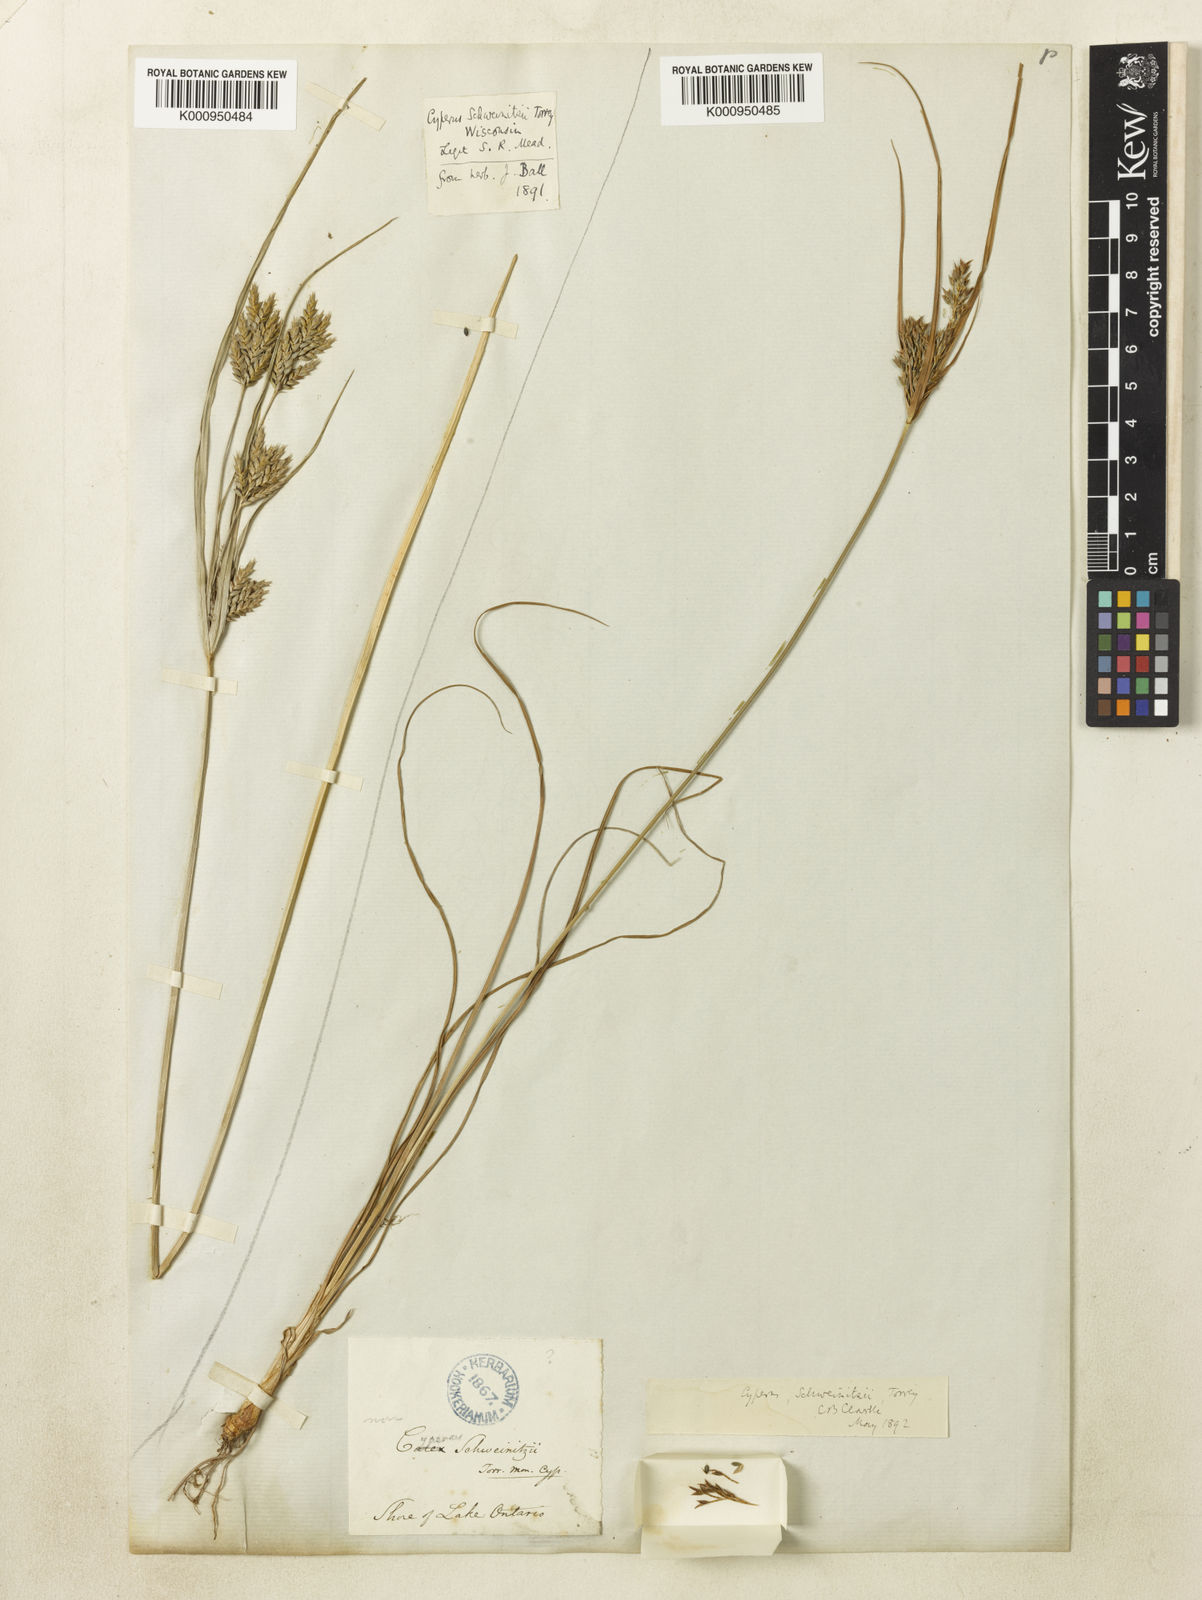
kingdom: Plantae
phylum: Tracheophyta
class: Liliopsida
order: Poales
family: Cyperaceae
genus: Cyperus
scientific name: Cyperus schweinitzii
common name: Schweinitz's cyperus
